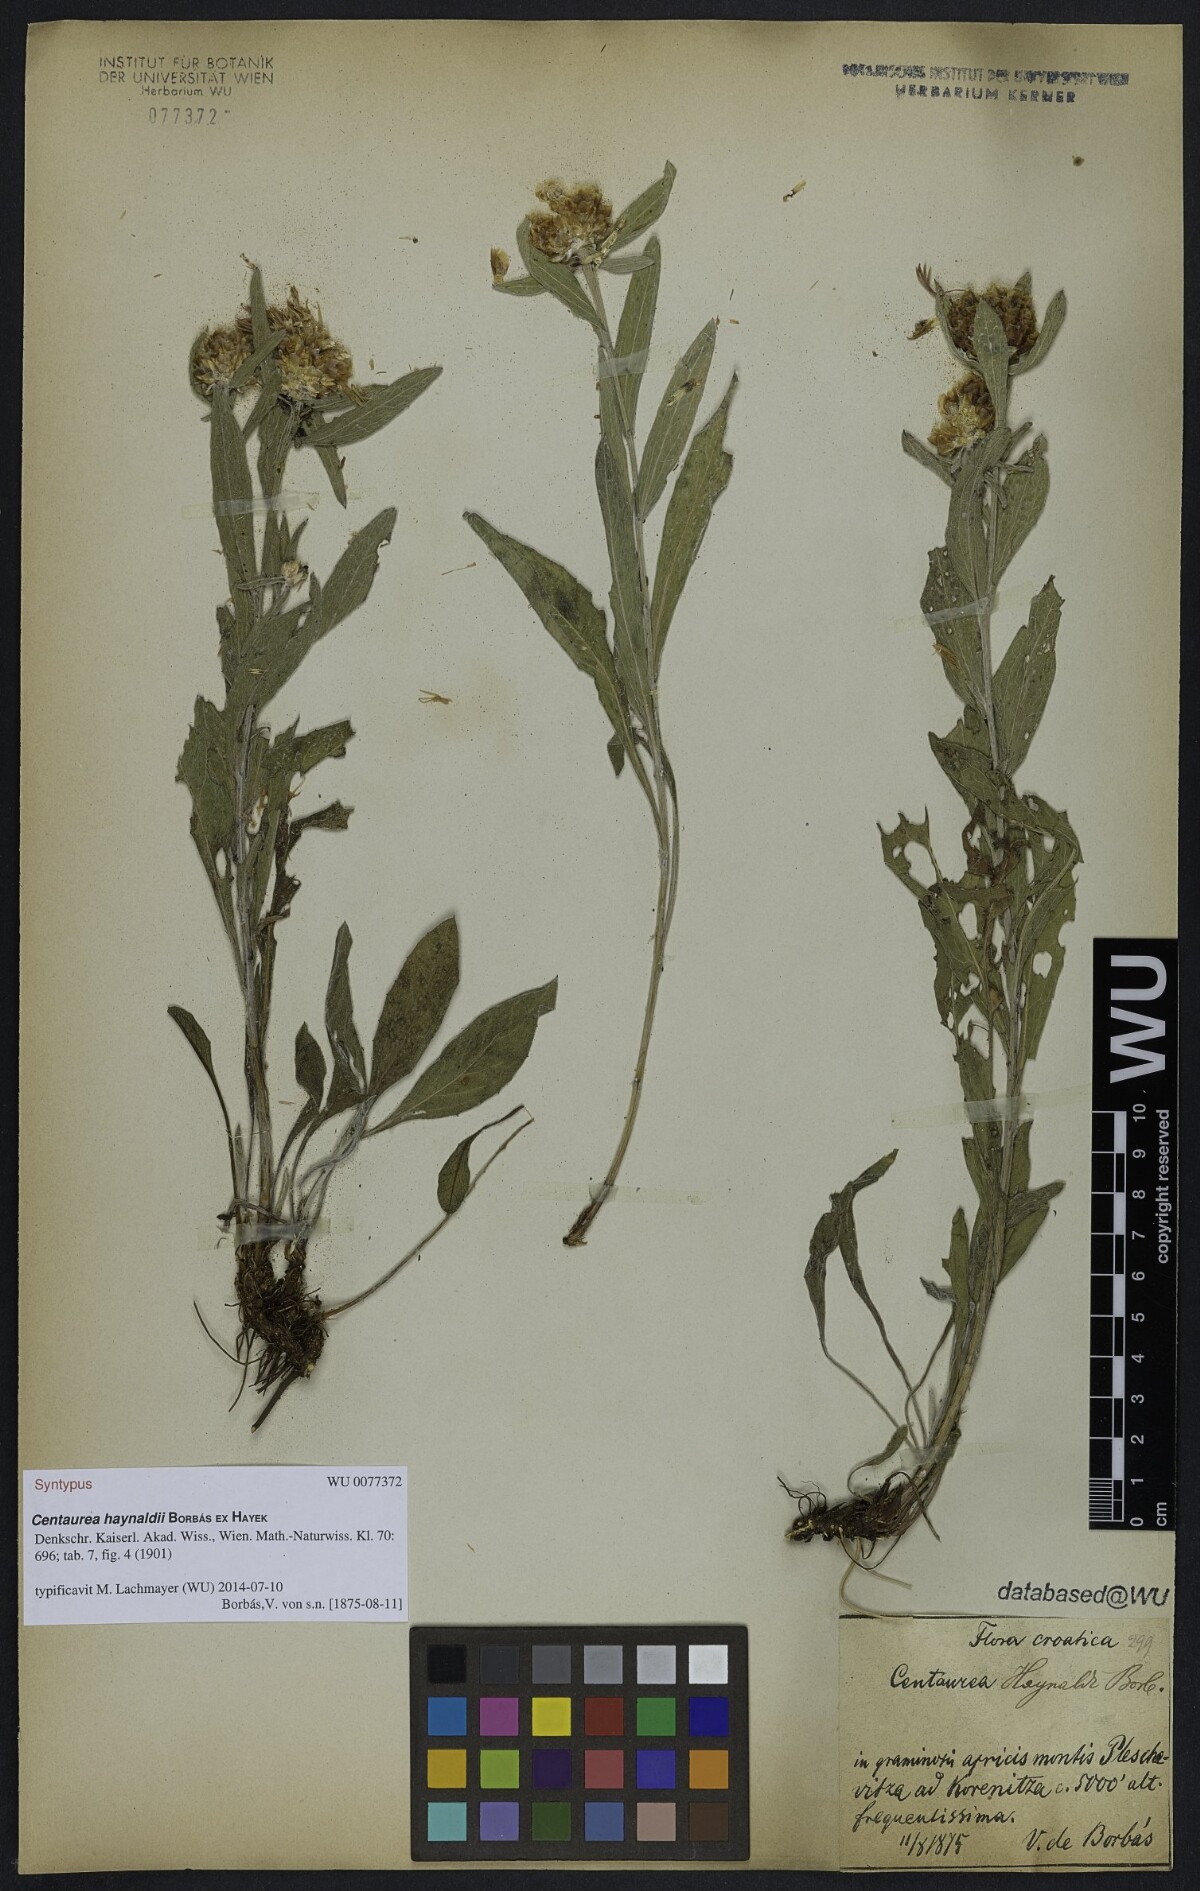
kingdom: Plantae
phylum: Tracheophyta
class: Magnoliopsida
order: Asterales
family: Asteraceae
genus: Centaurea
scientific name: Centaurea jacea
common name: Brown knapweed
